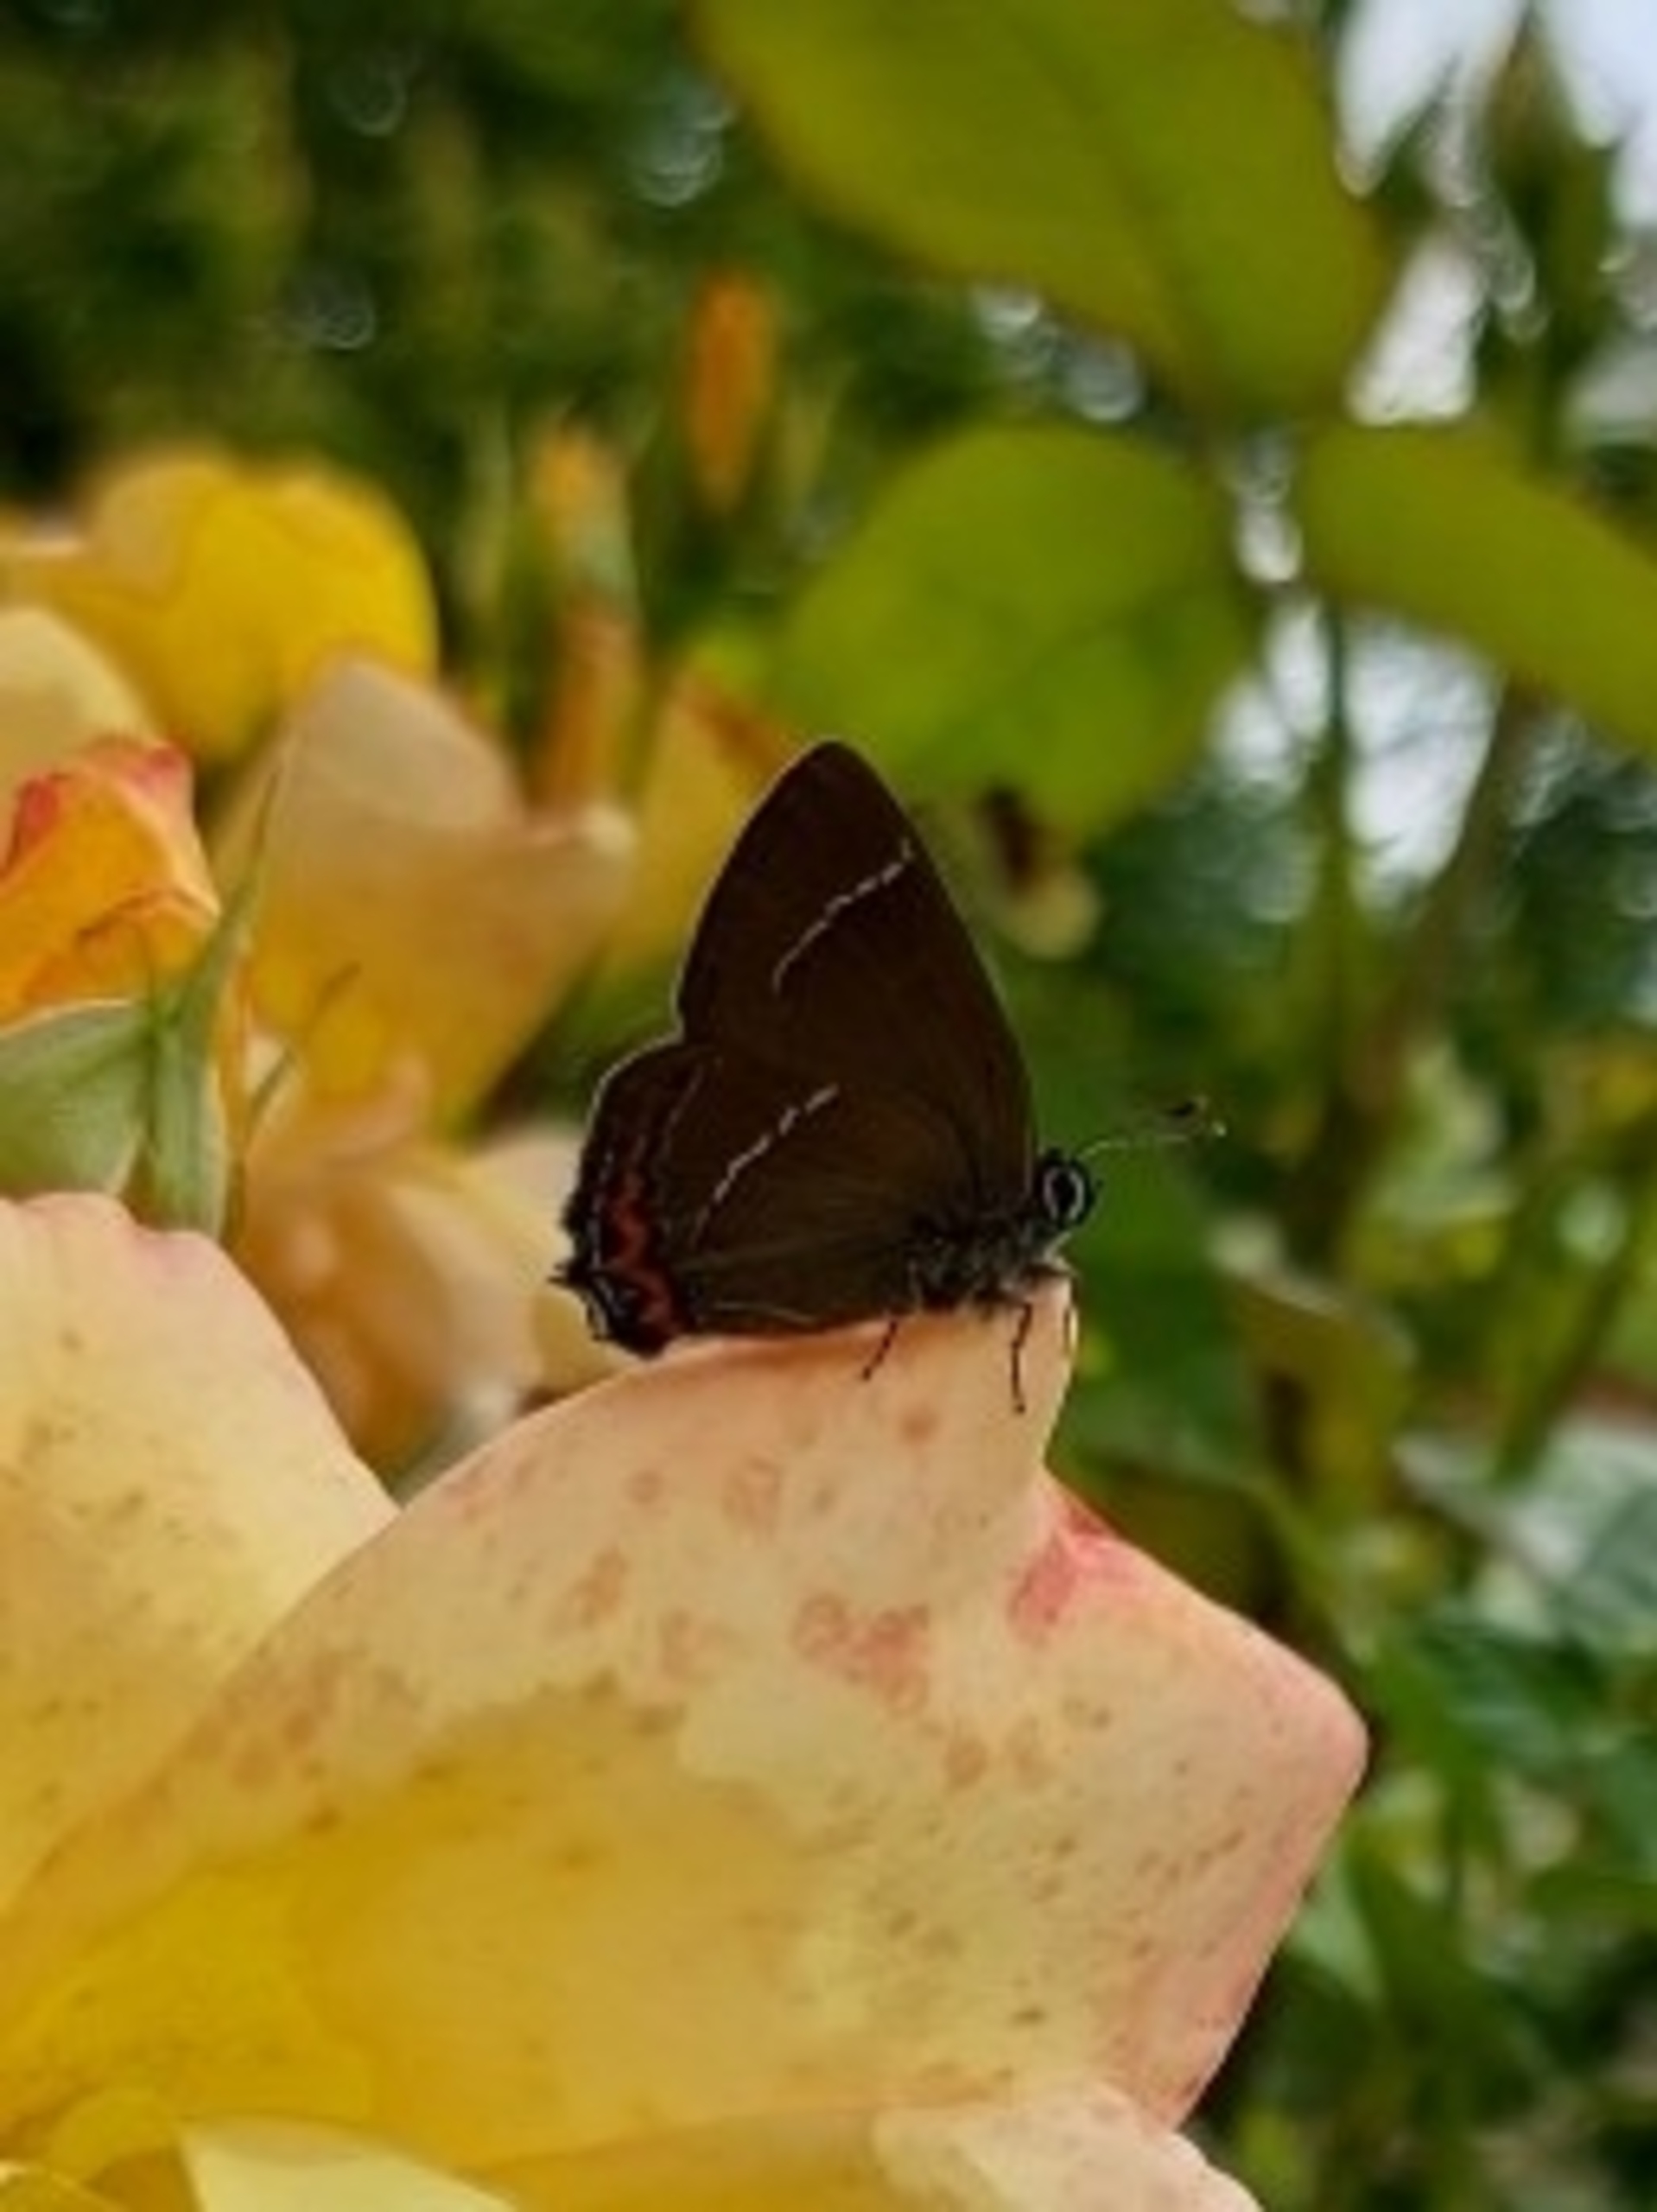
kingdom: Animalia
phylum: Arthropoda
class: Insecta
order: Lepidoptera
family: Lycaenidae
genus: Satyrium
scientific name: Satyrium w-album
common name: Det hvide W
